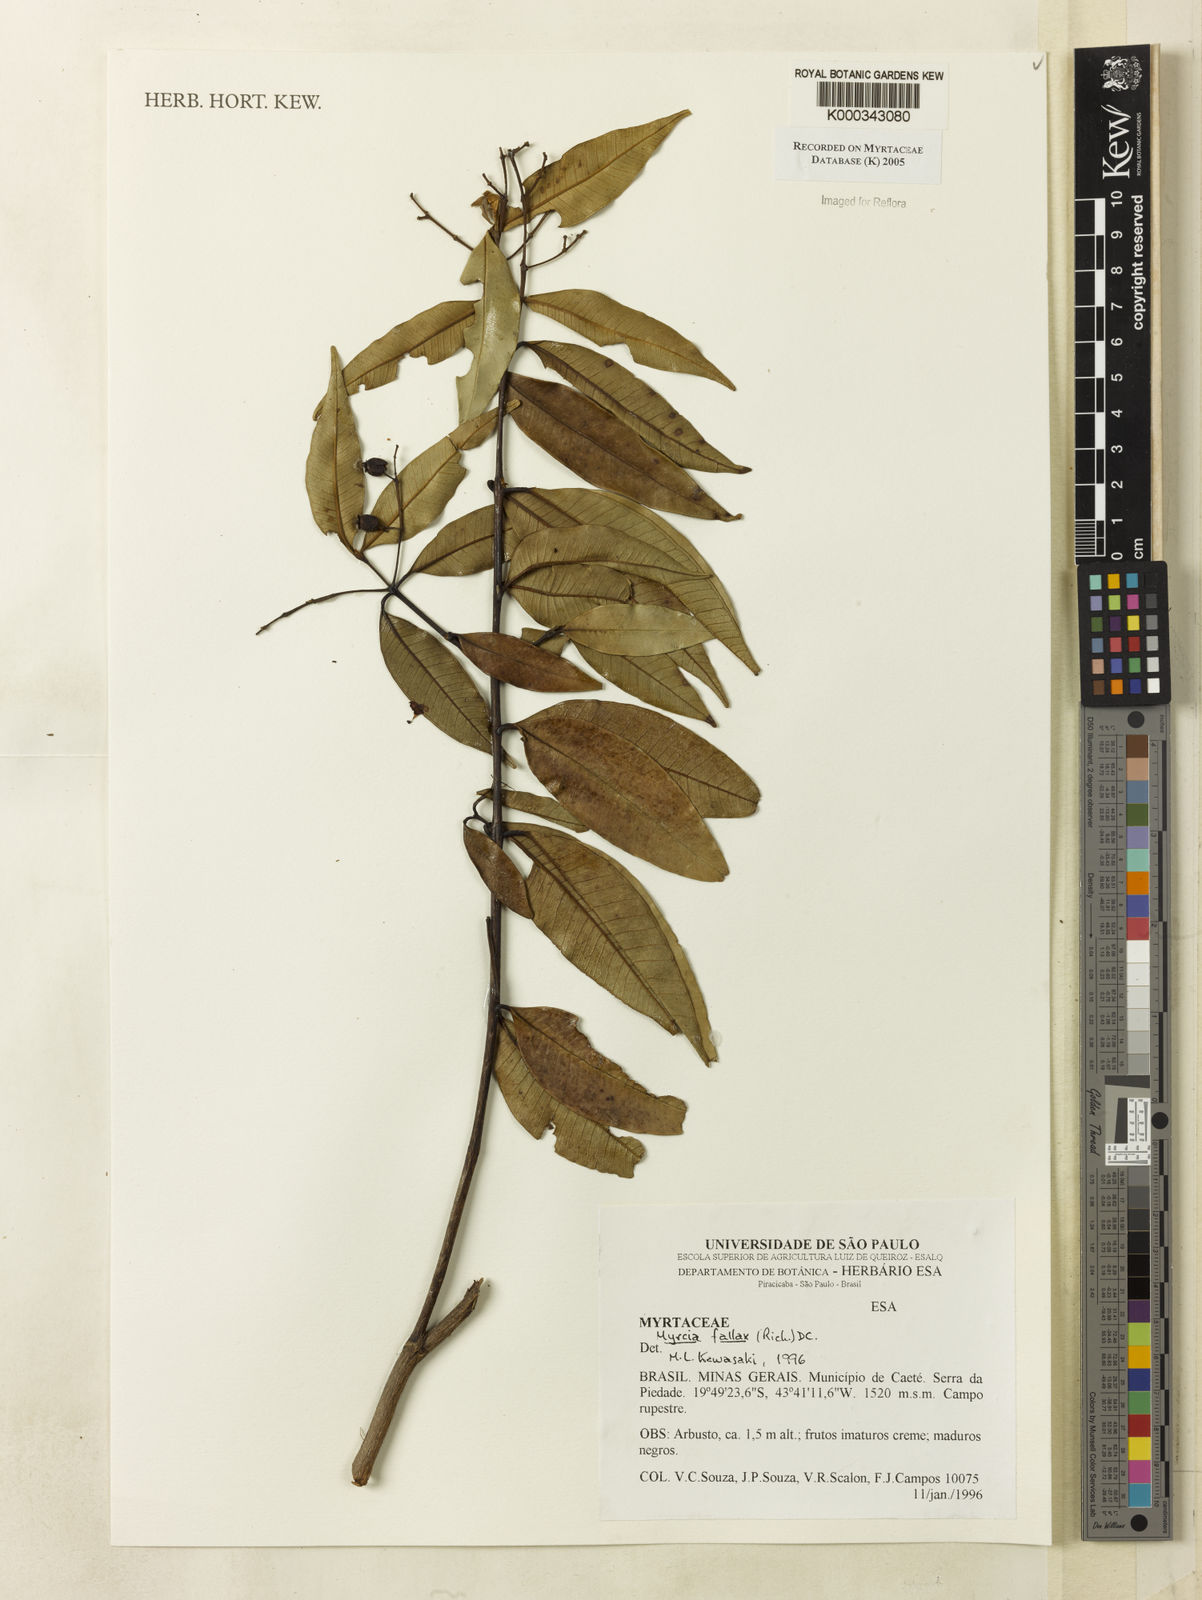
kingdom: Plantae
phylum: Tracheophyta
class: Magnoliopsida
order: Myrtales
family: Myrtaceae
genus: Myrcia
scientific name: Myrcia splendens
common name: Surinam cherry
